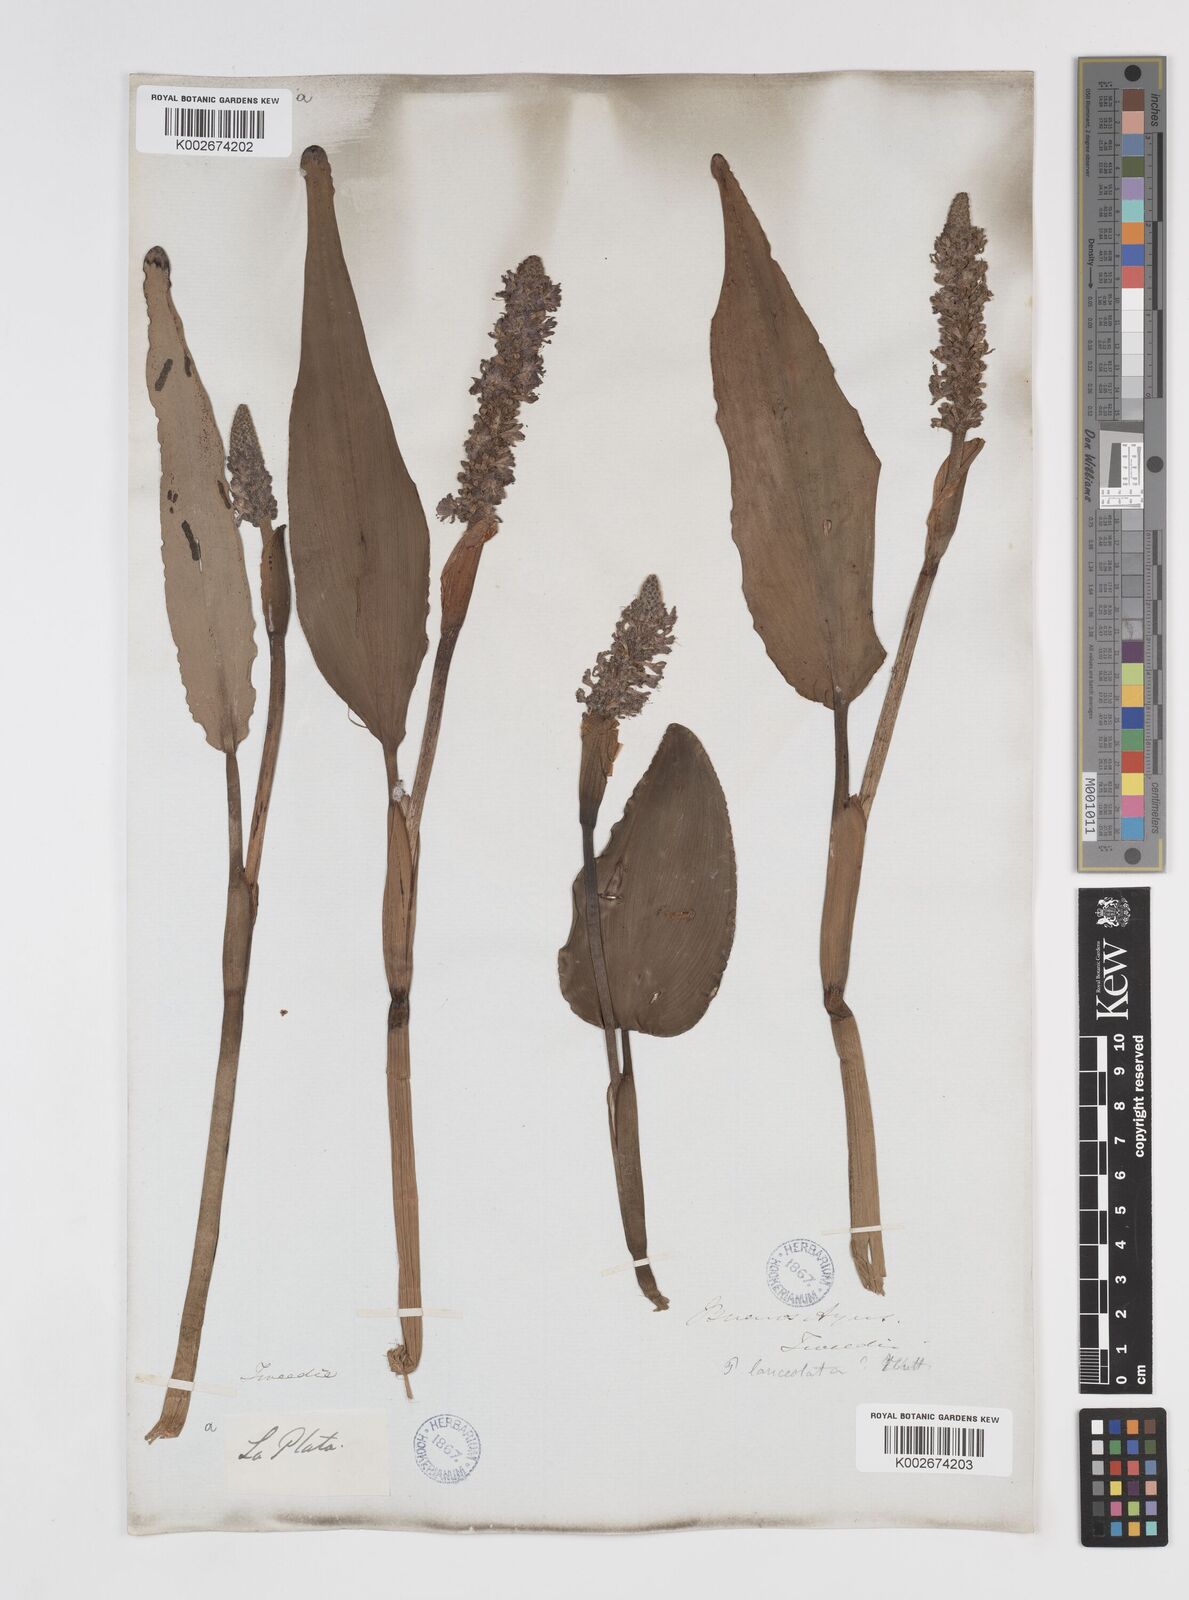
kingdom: Plantae
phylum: Tracheophyta
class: Liliopsida
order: Commelinales
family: Pontederiaceae
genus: Pontederia
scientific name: Pontederia
